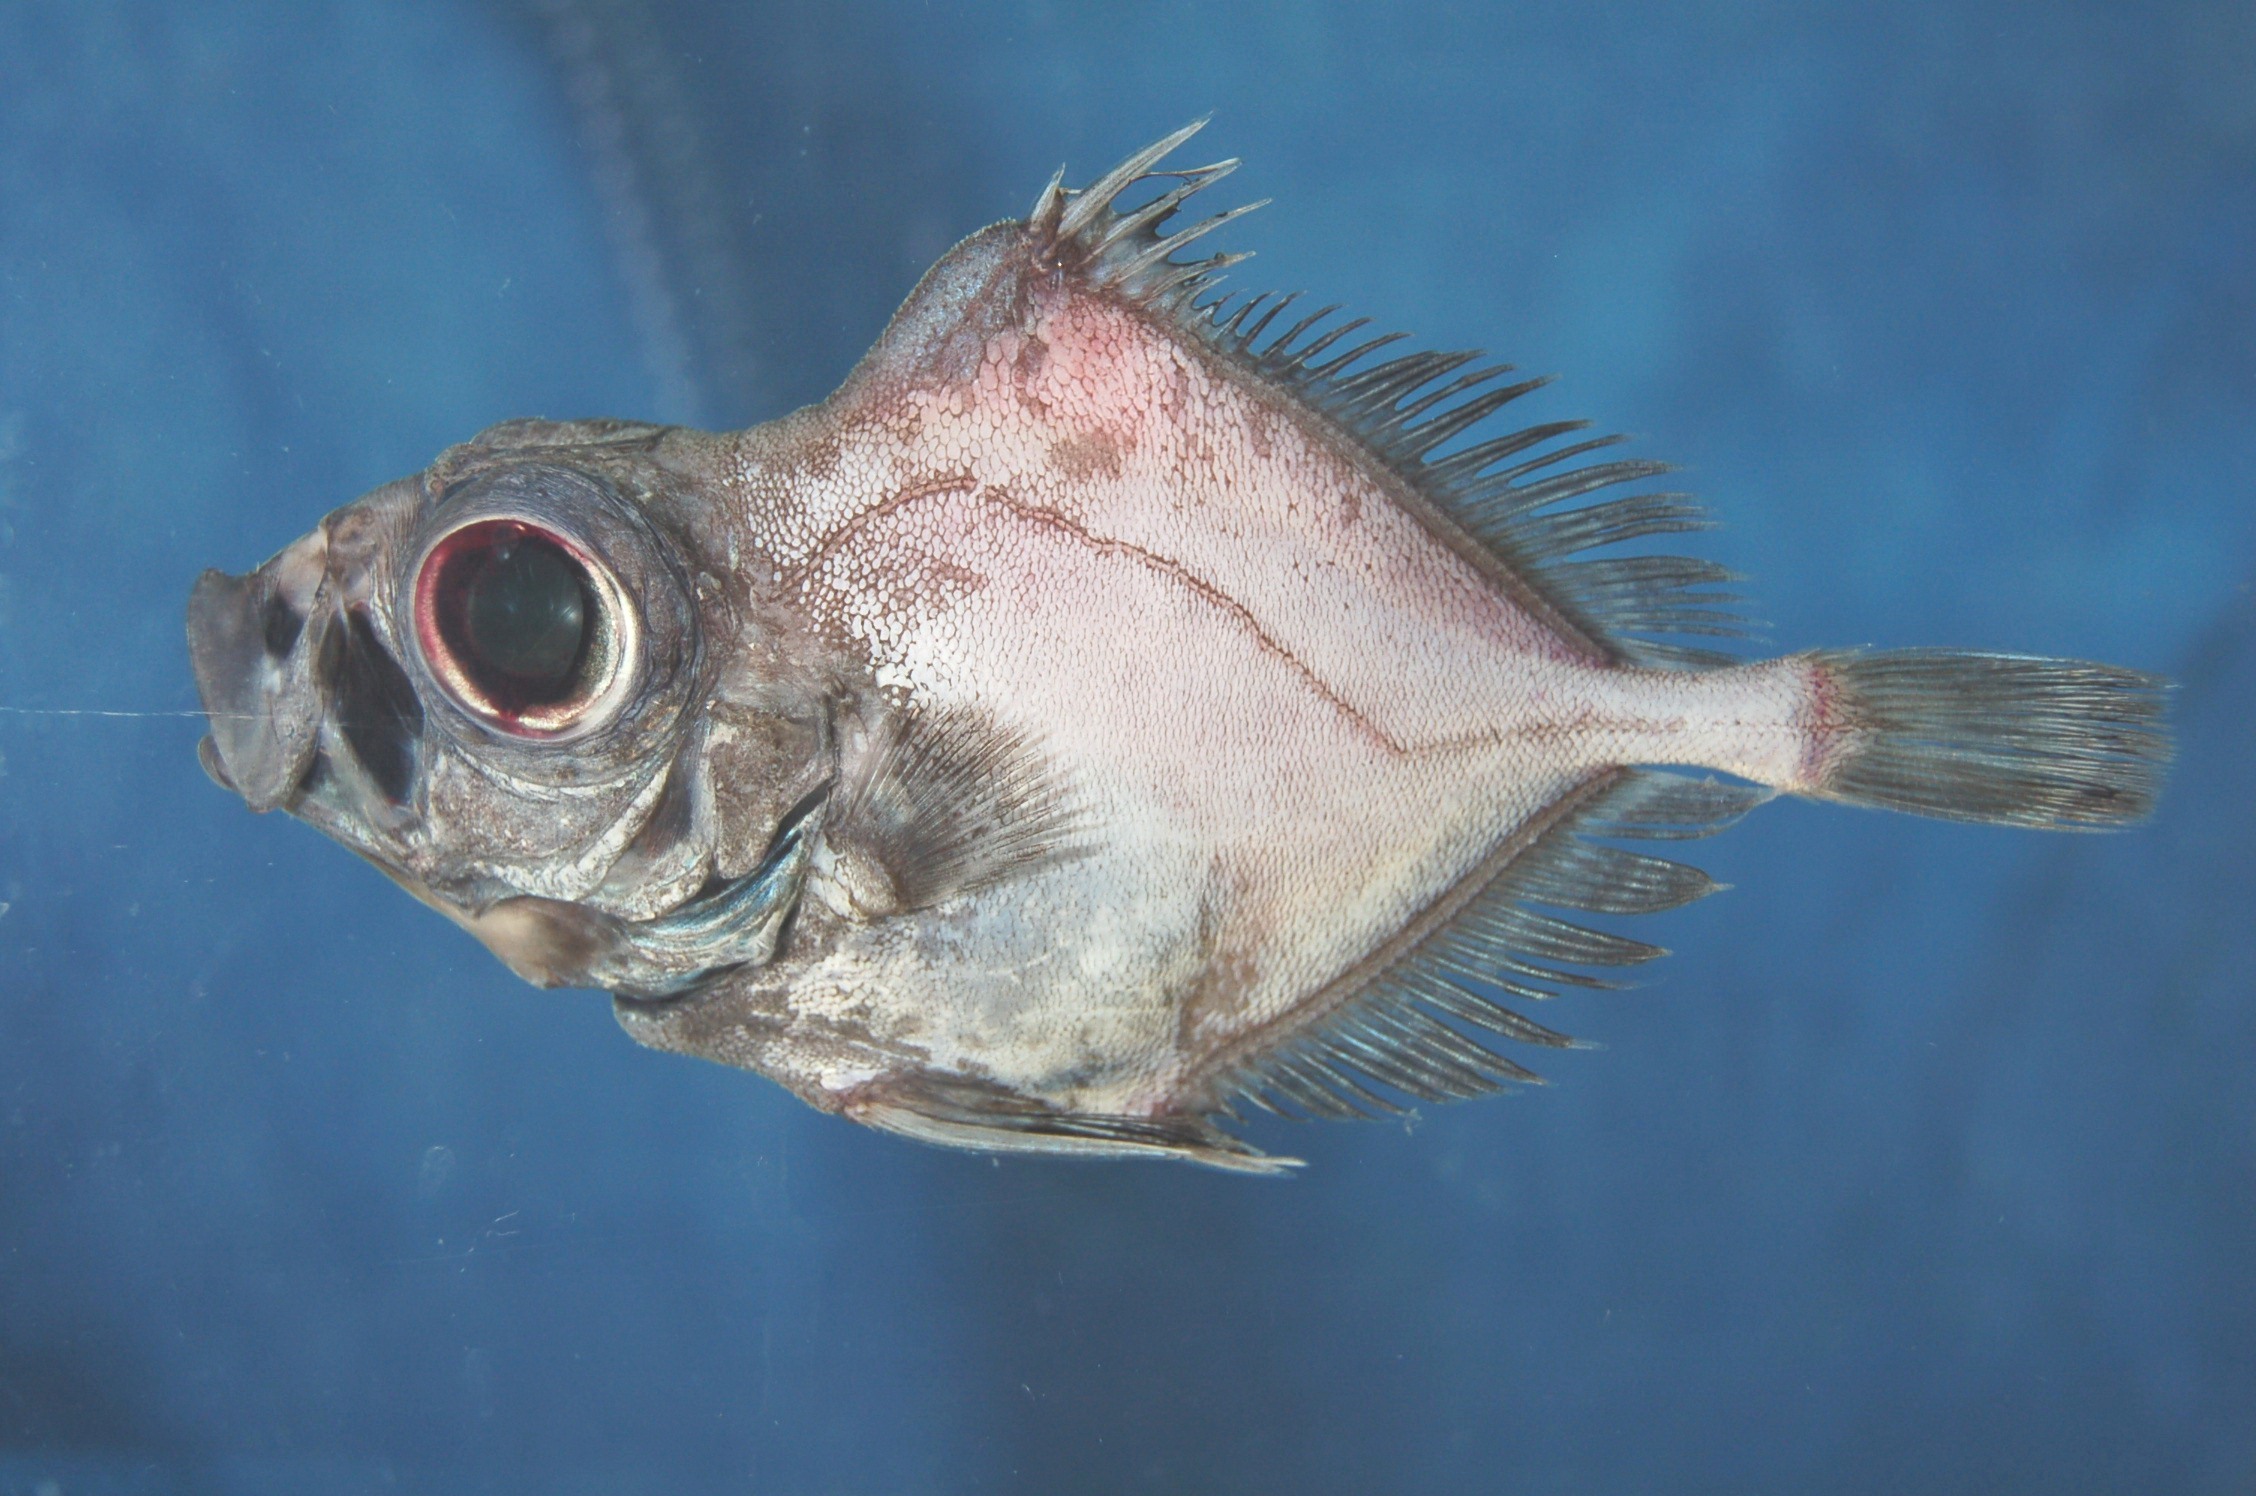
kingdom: Animalia
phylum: Chordata
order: Zeiformes
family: Oreosomatidae
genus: Oreosoma
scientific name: Oreosoma atlanticum
